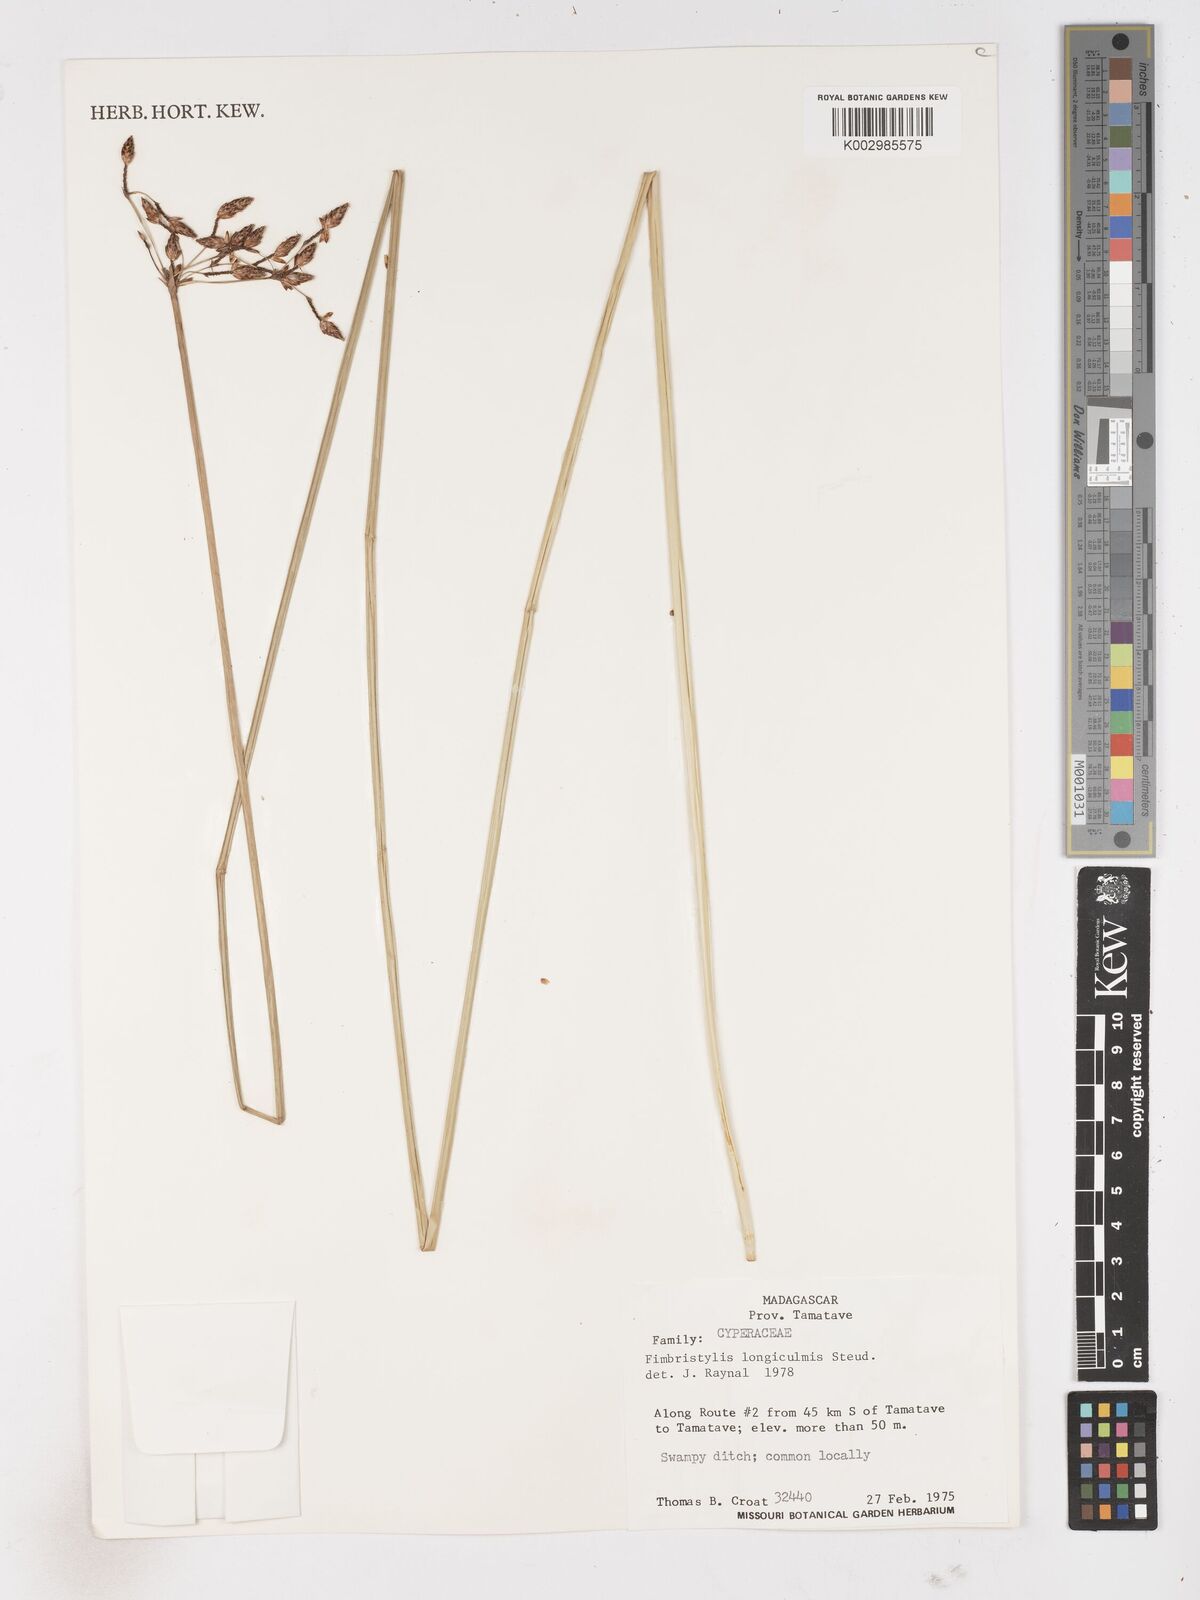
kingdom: Plantae
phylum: Tracheophyta
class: Liliopsida
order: Poales
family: Cyperaceae
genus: Fimbristylis
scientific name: Fimbristylis bivalvis
